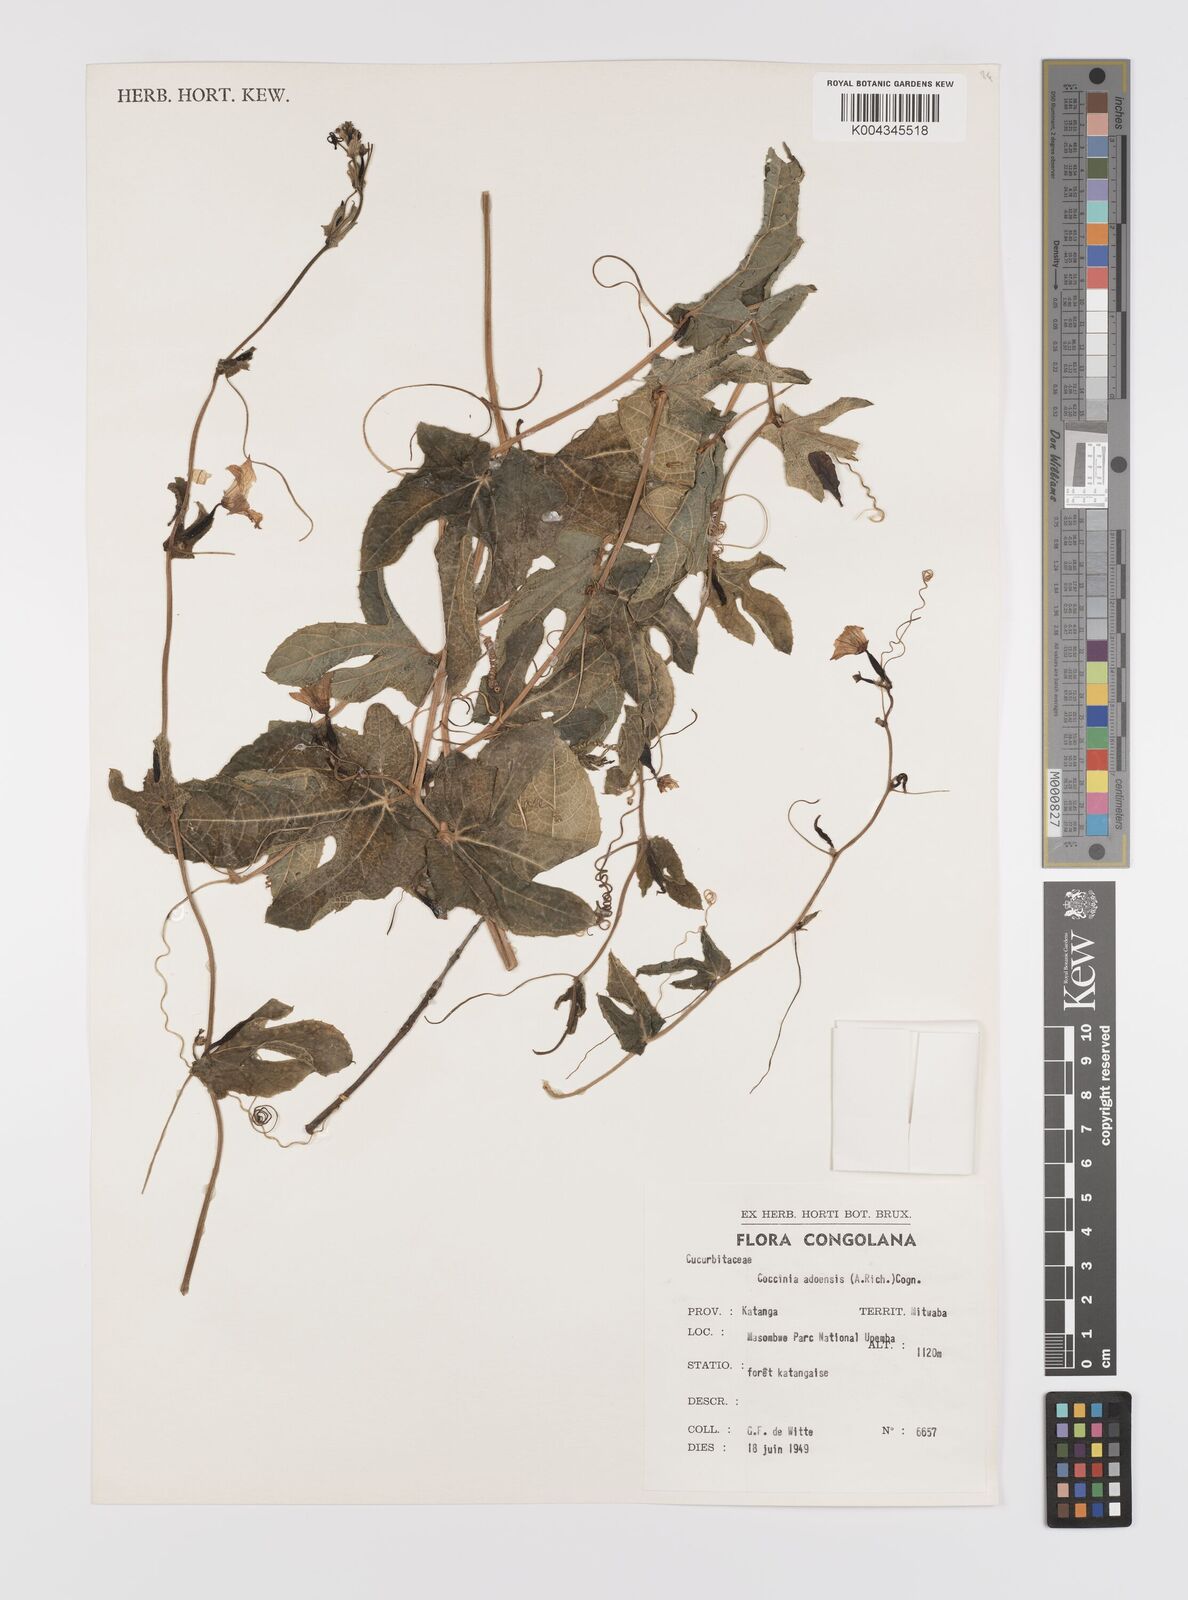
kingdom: Plantae
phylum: Tracheophyta
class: Magnoliopsida
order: Cucurbitales
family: Cucurbitaceae
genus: Coccinia
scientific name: Coccinia adoensis
